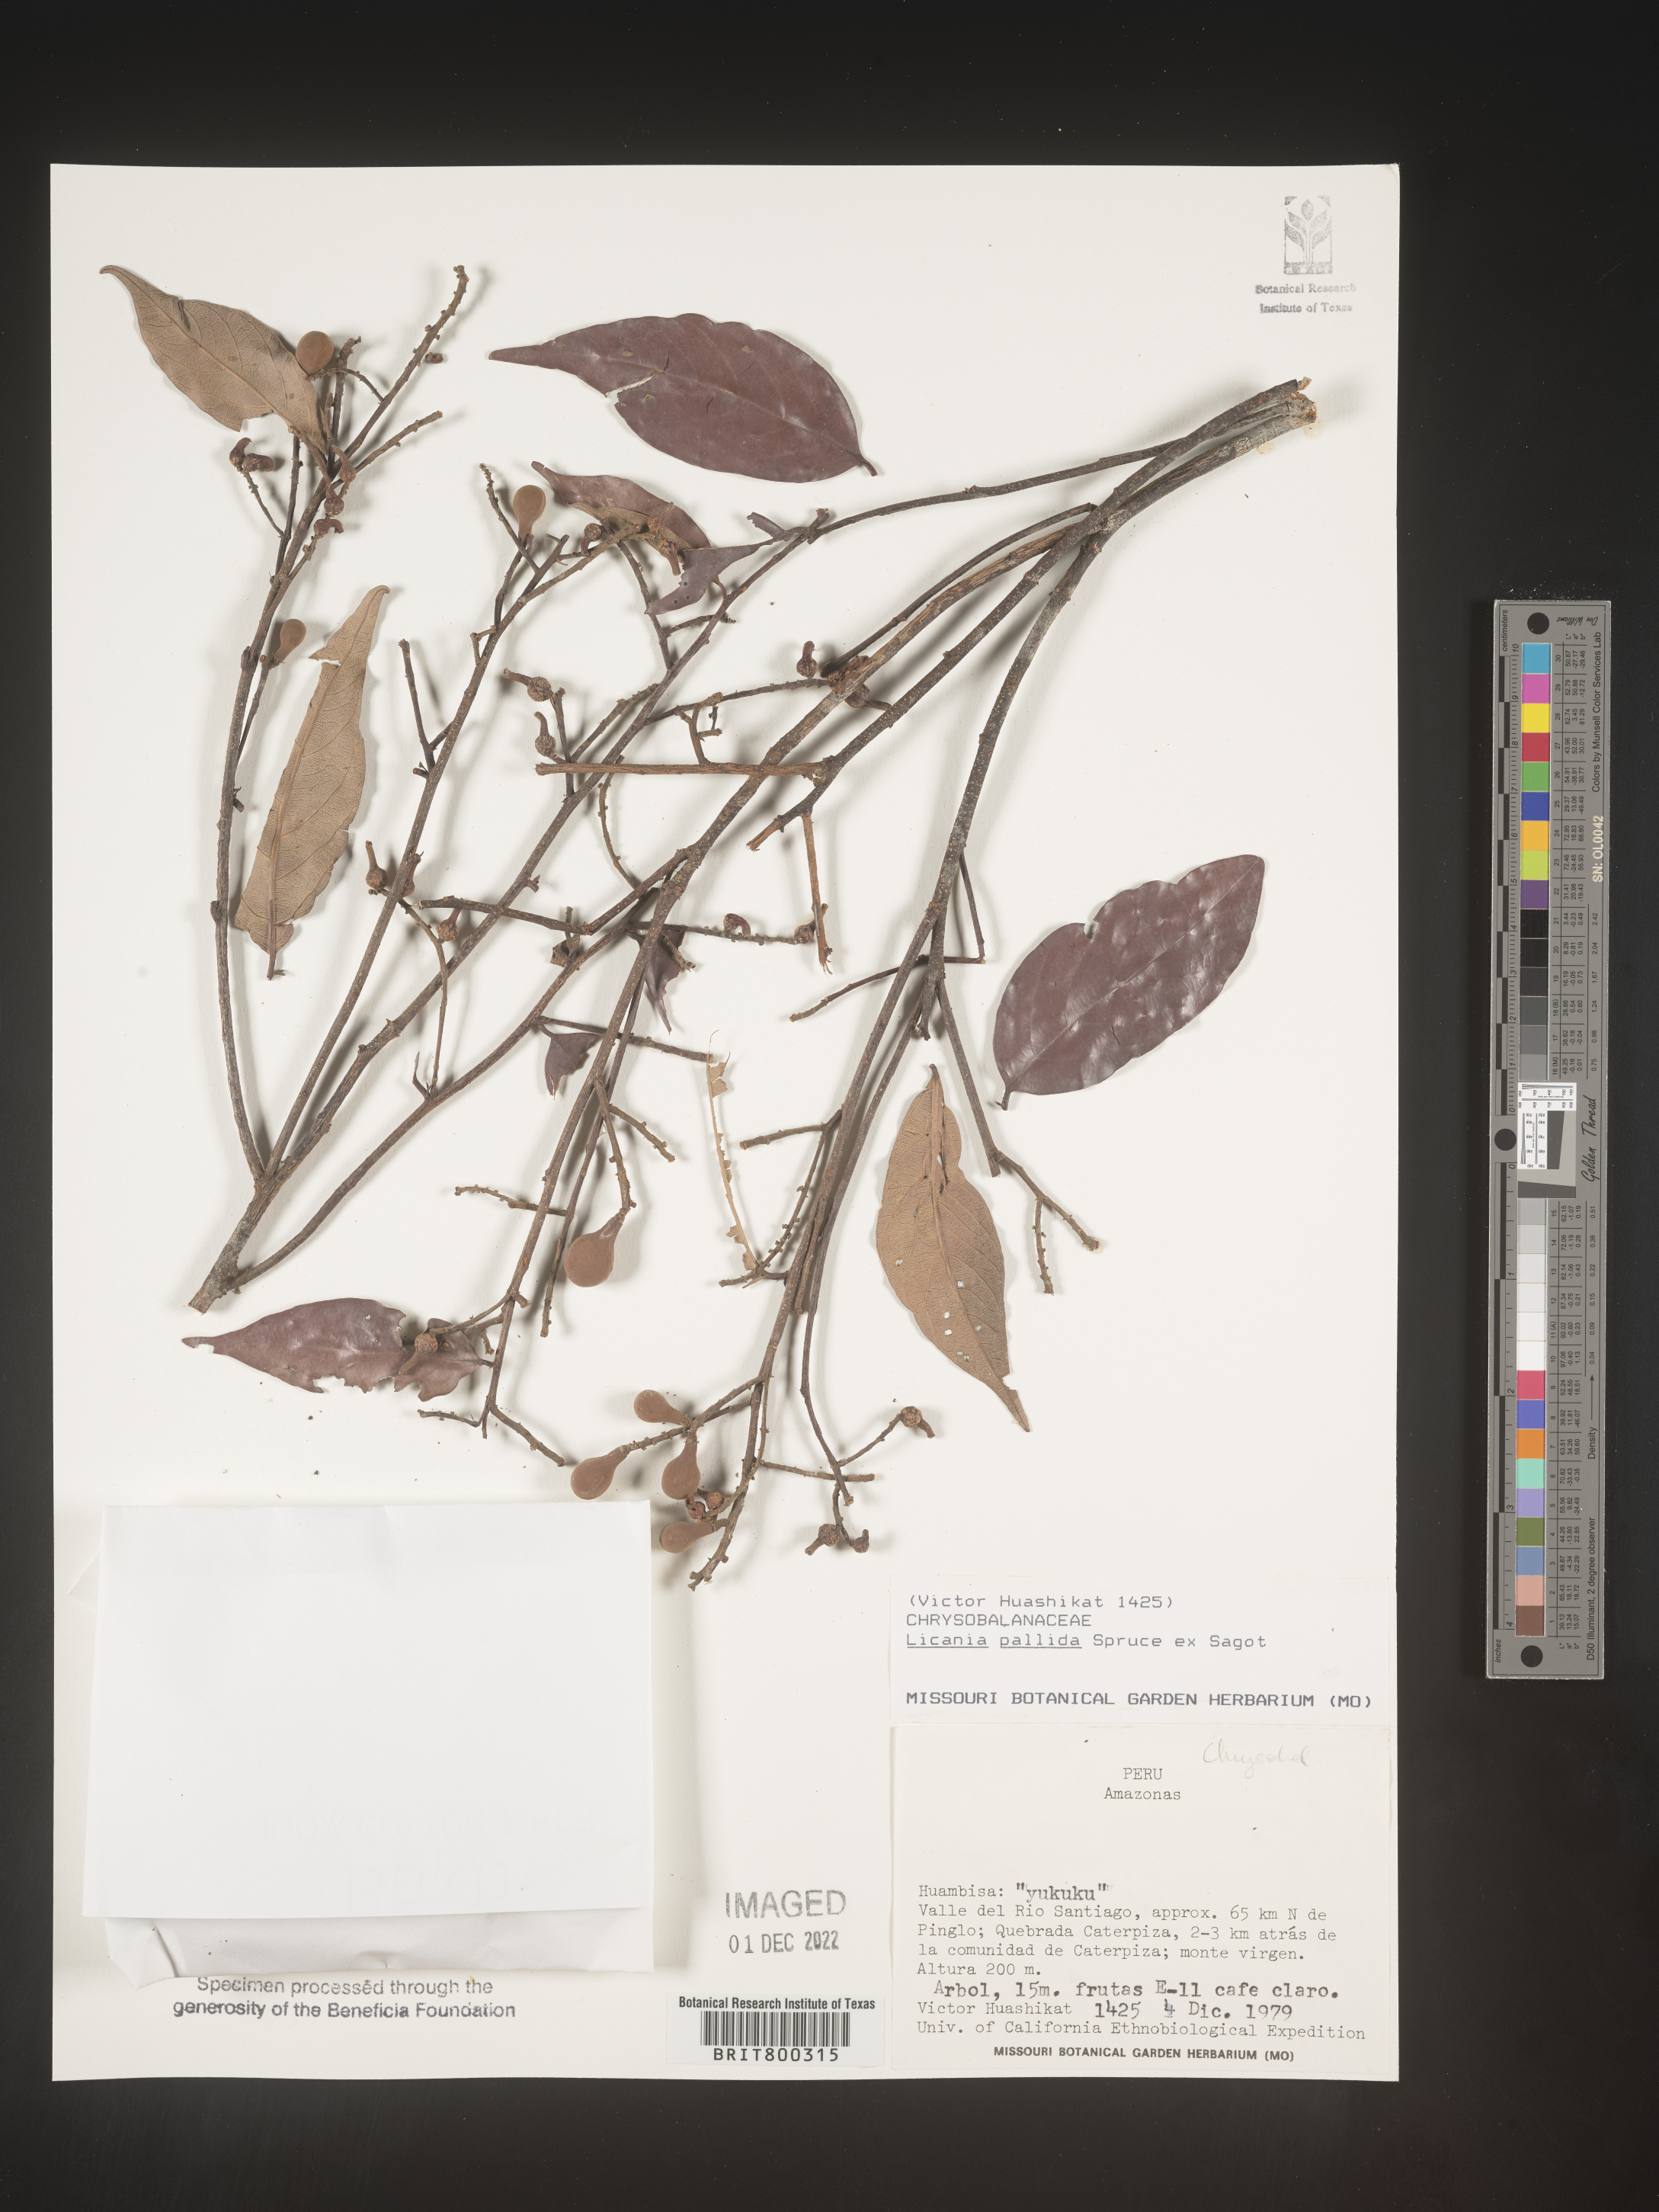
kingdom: Plantae
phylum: Tracheophyta
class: Magnoliopsida
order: Malpighiales
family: Chrysobalanaceae
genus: Licania
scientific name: Licania
